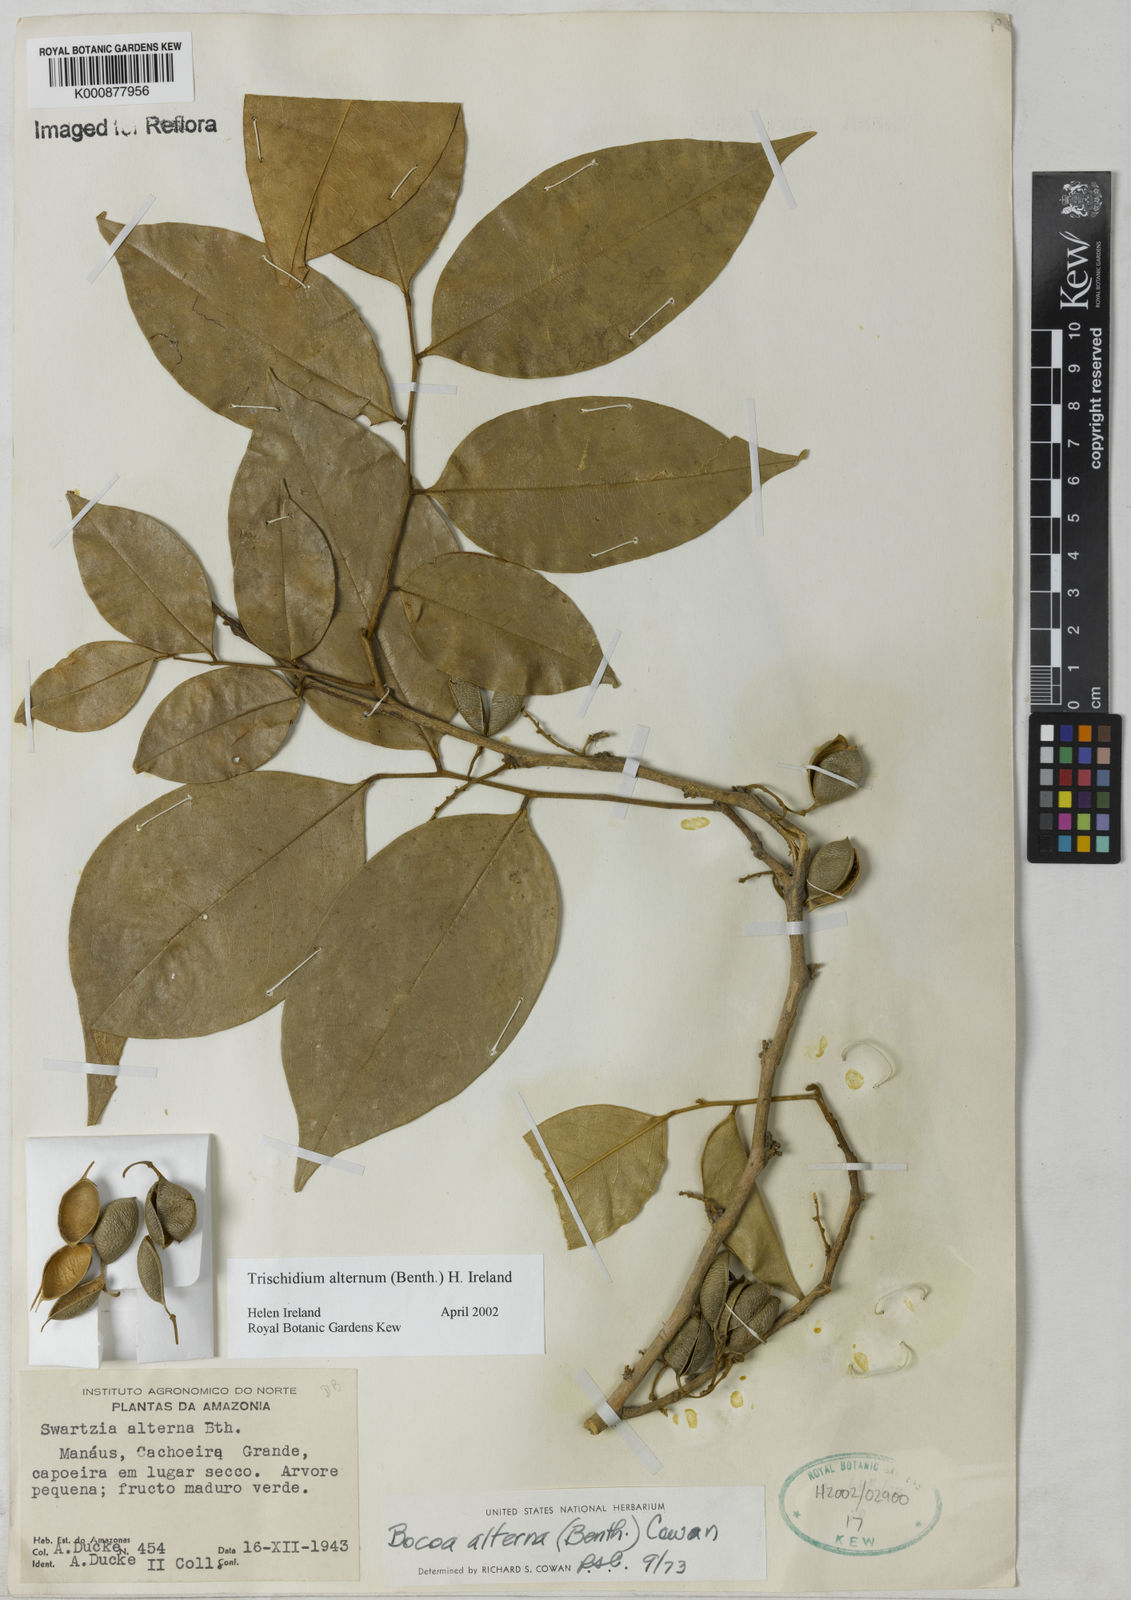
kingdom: Plantae
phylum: Tracheophyta
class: Magnoliopsida
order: Fabales
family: Fabaceae
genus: Trischidium
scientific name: Trischidium alternum
